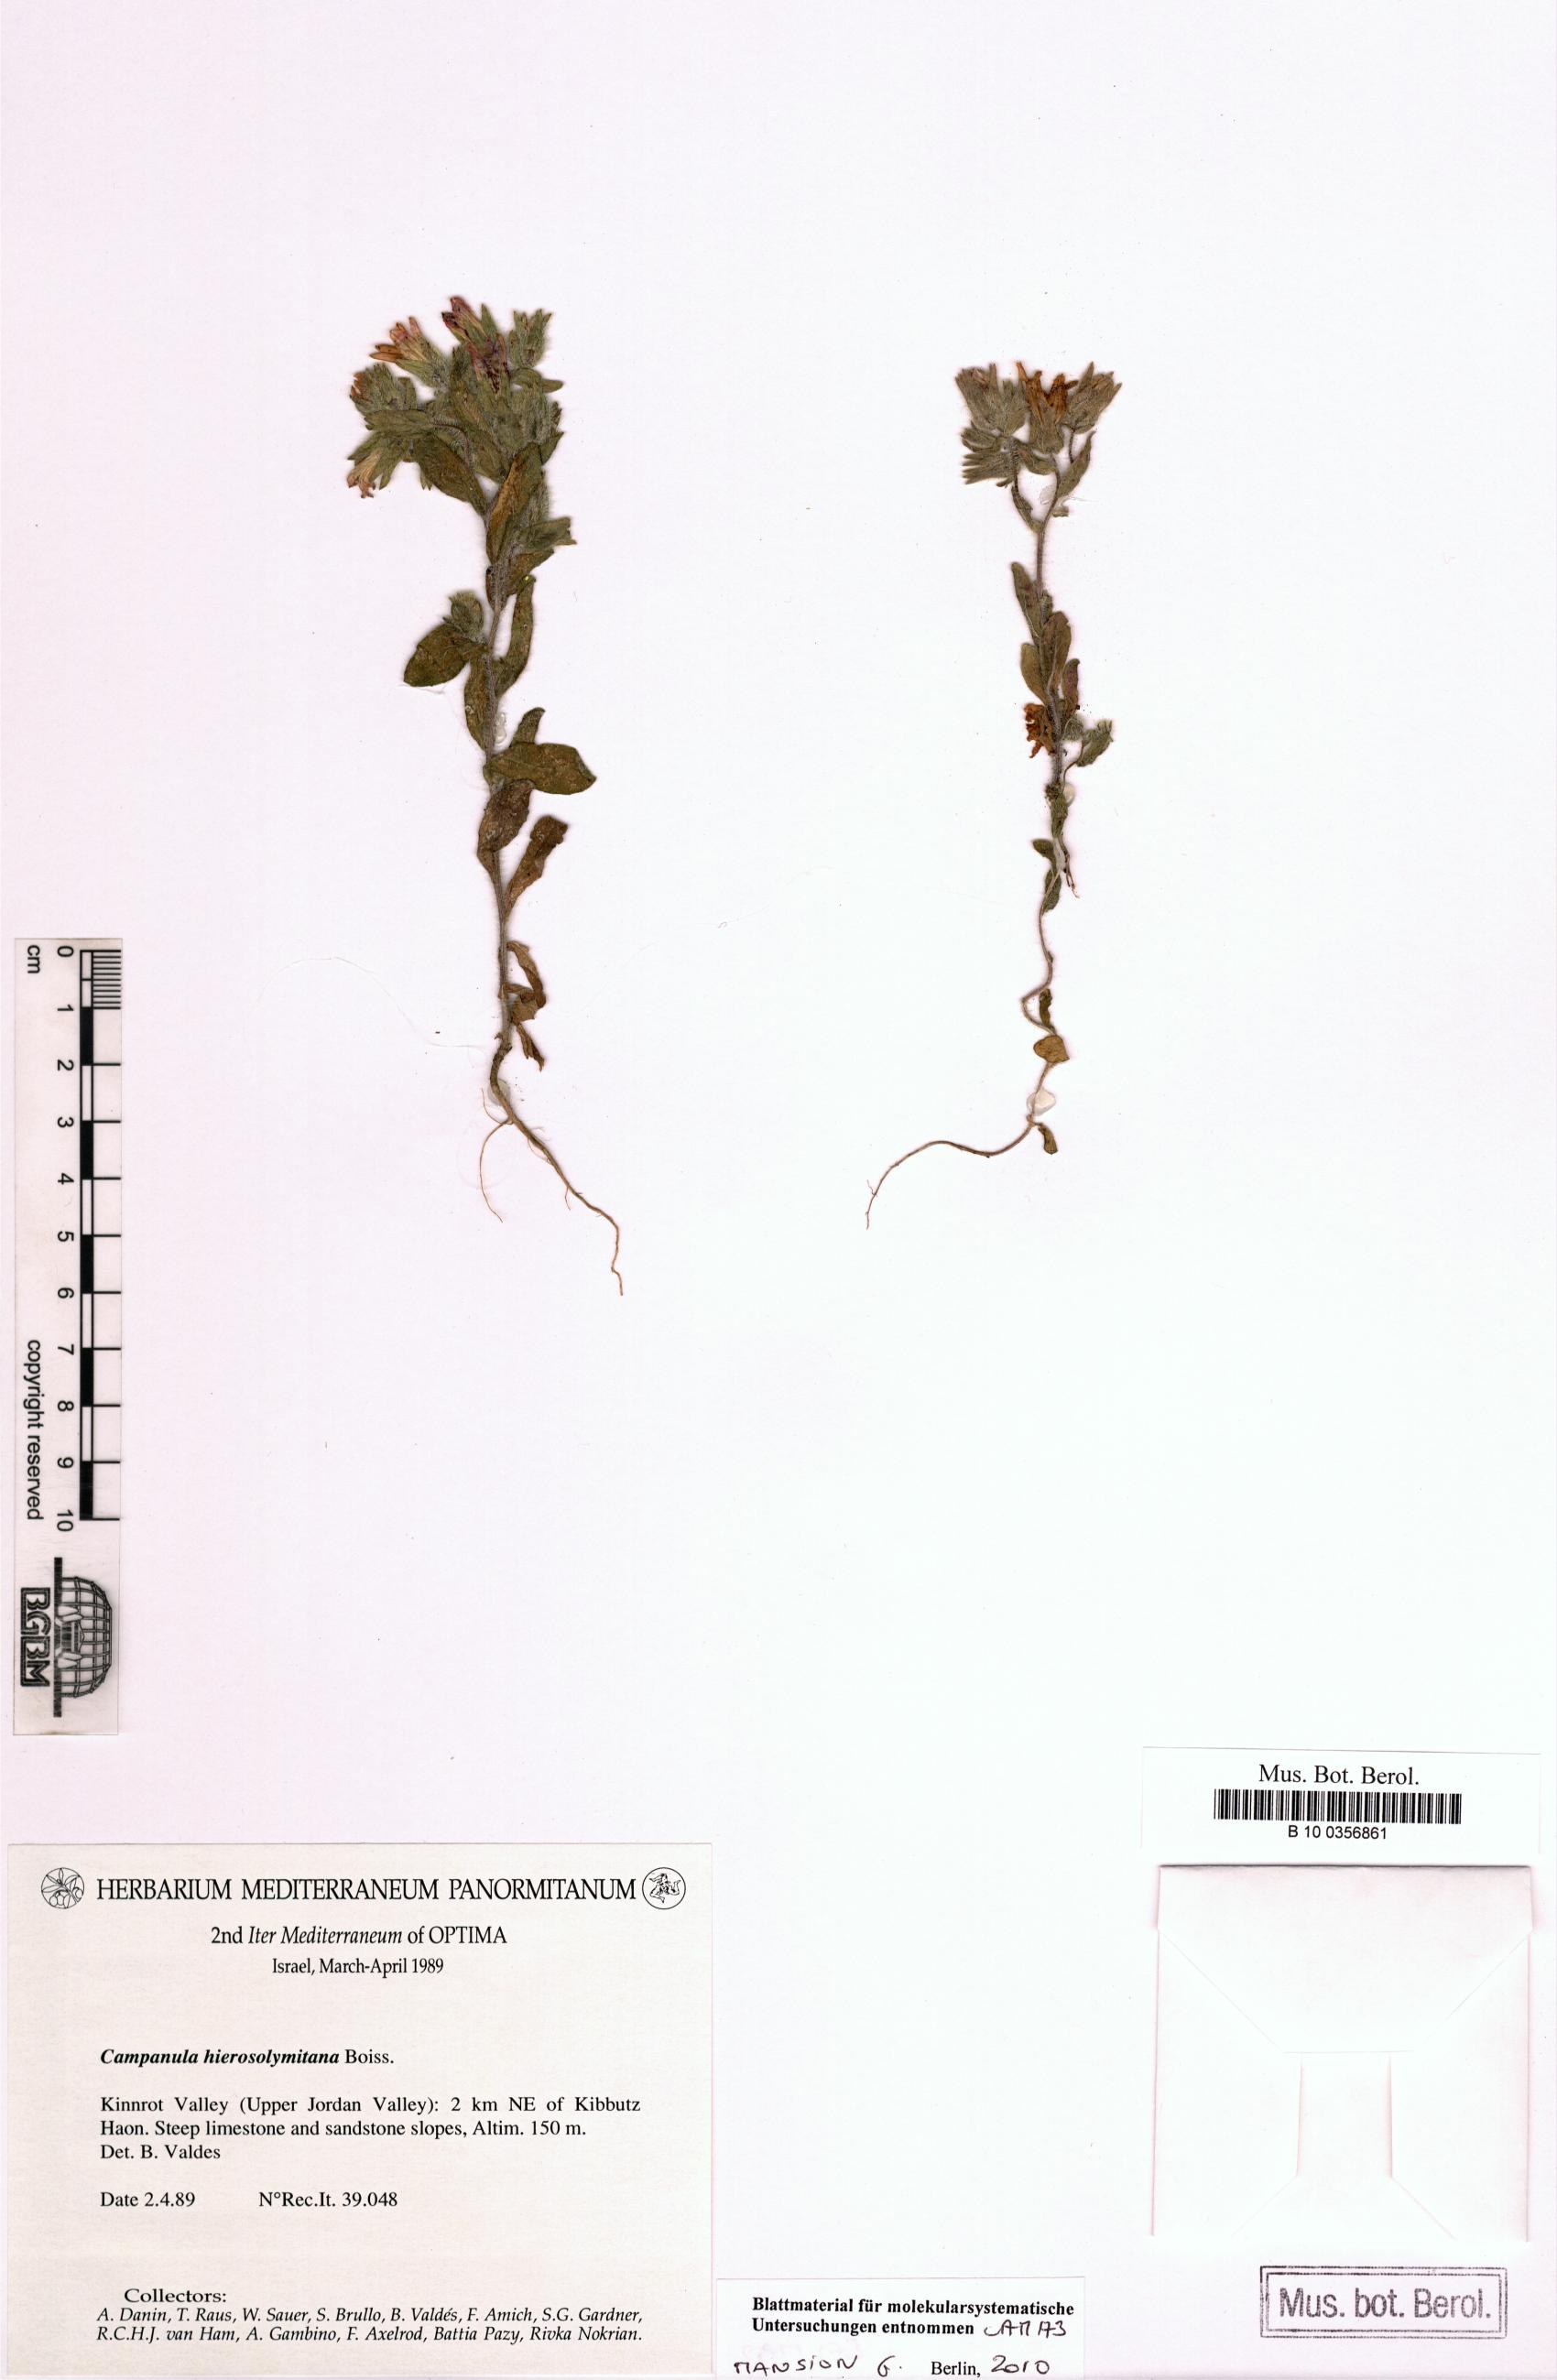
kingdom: Plantae
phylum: Tracheophyta
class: Magnoliopsida
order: Asterales
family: Campanulaceae
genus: Campanula
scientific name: Campanula hierosolymitana
